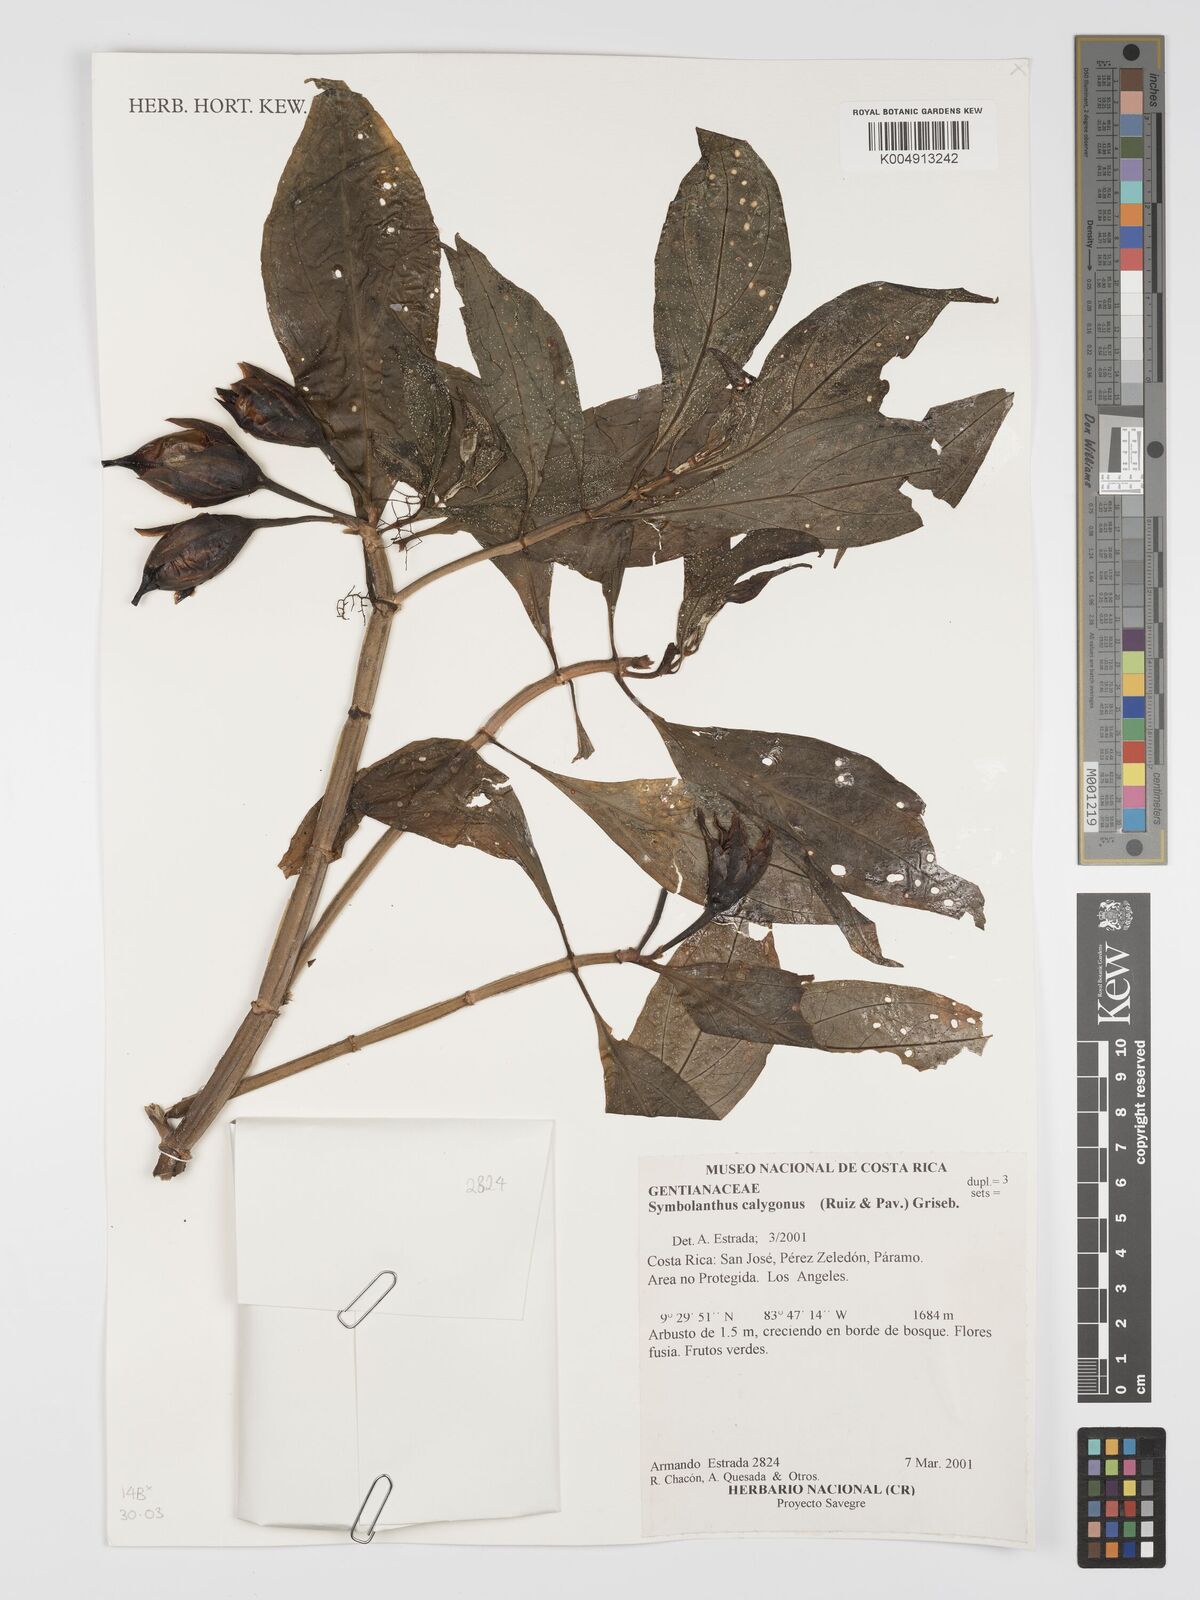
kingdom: Plantae
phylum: Tracheophyta
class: Magnoliopsida
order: Gentianales
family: Gentianaceae
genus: Symbolanthus
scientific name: Symbolanthus calygonus
